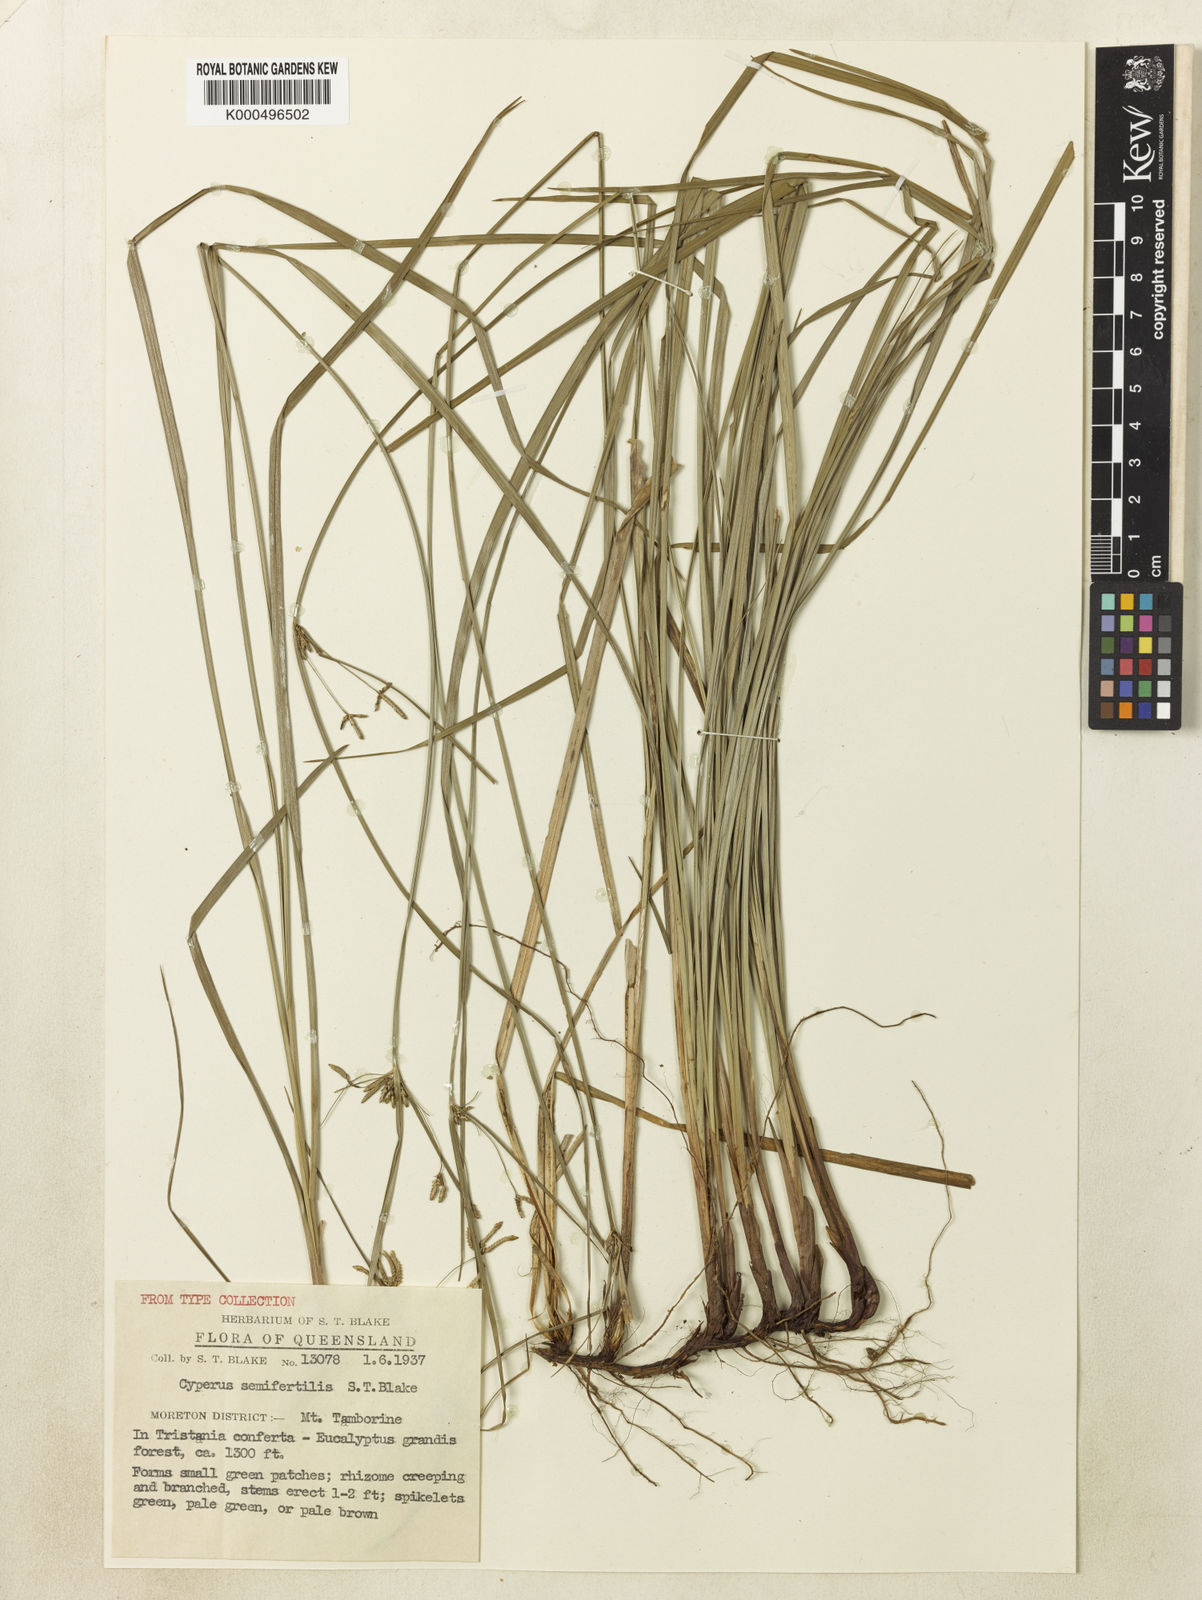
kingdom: Plantae
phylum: Tracheophyta
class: Liliopsida
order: Poales
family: Cyperaceae
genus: Cyperus
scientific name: Cyperus semifertilis
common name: Missionary nutgrass
